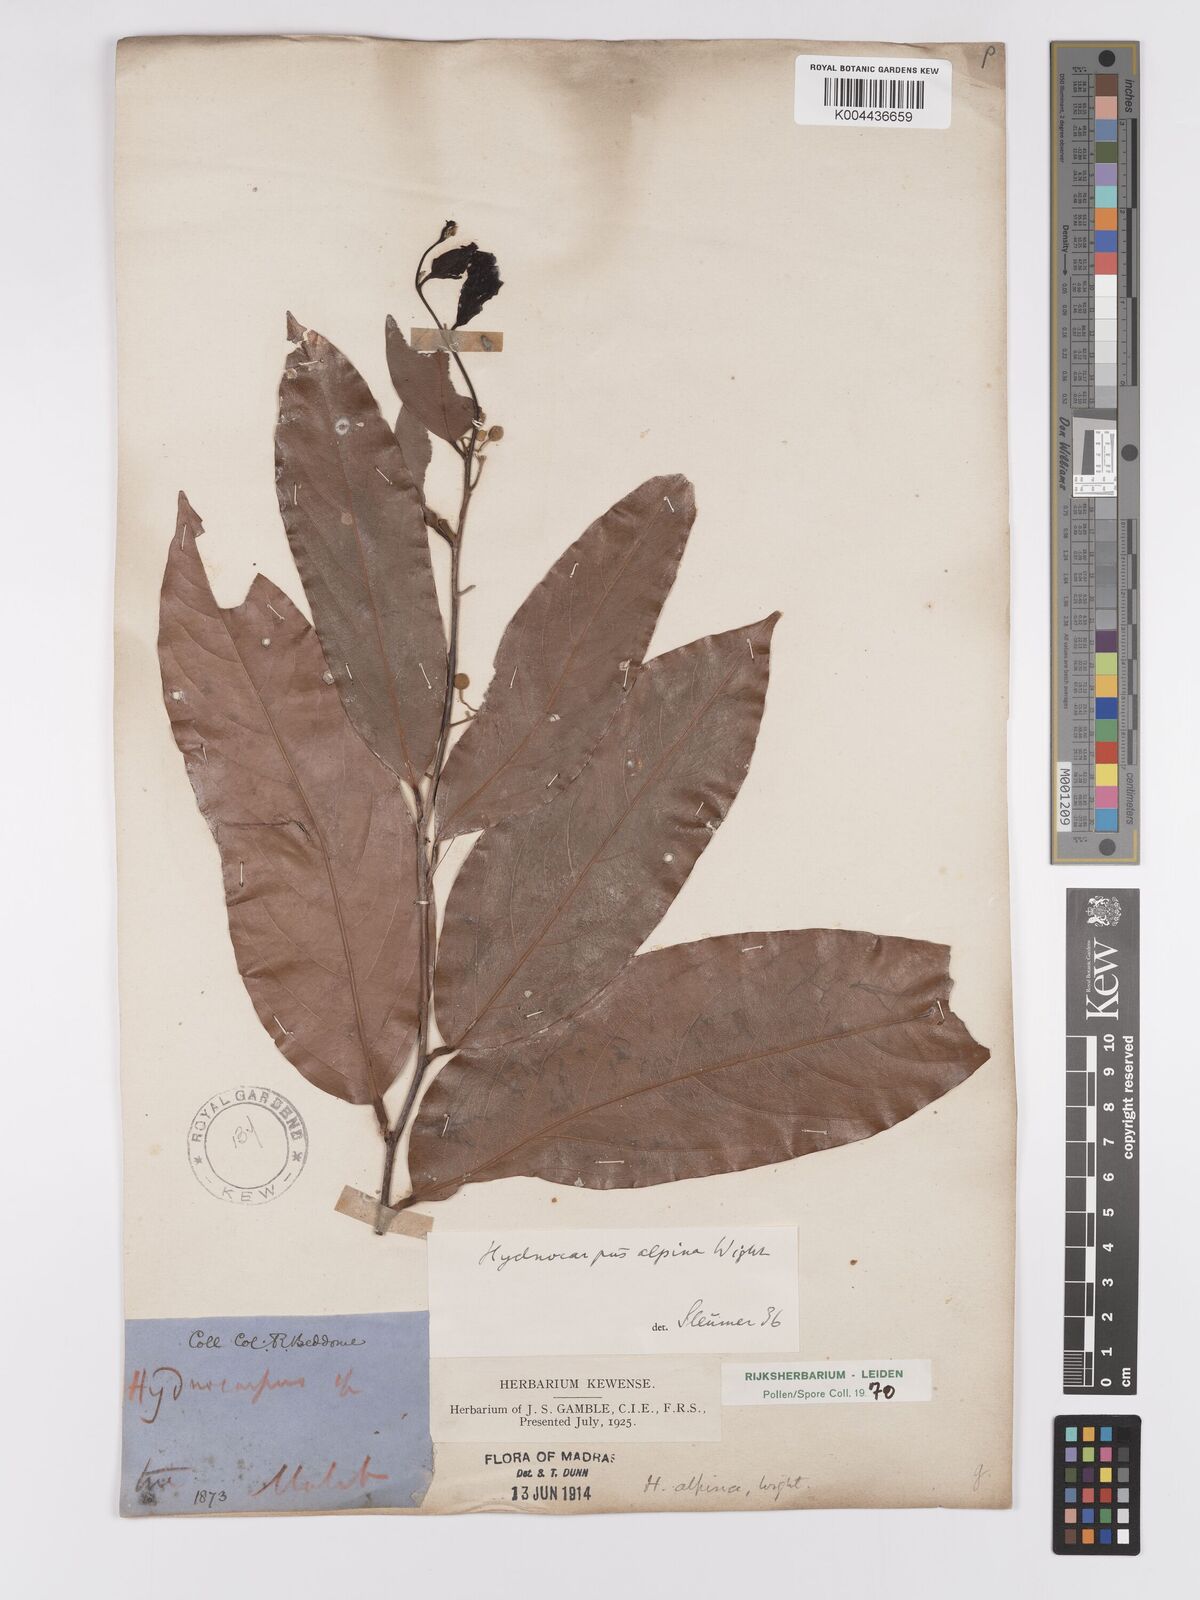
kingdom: Plantae
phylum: Tracheophyta
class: Magnoliopsida
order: Malpighiales
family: Achariaceae
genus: Hydnocarpus
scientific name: Hydnocarpus alpinus
